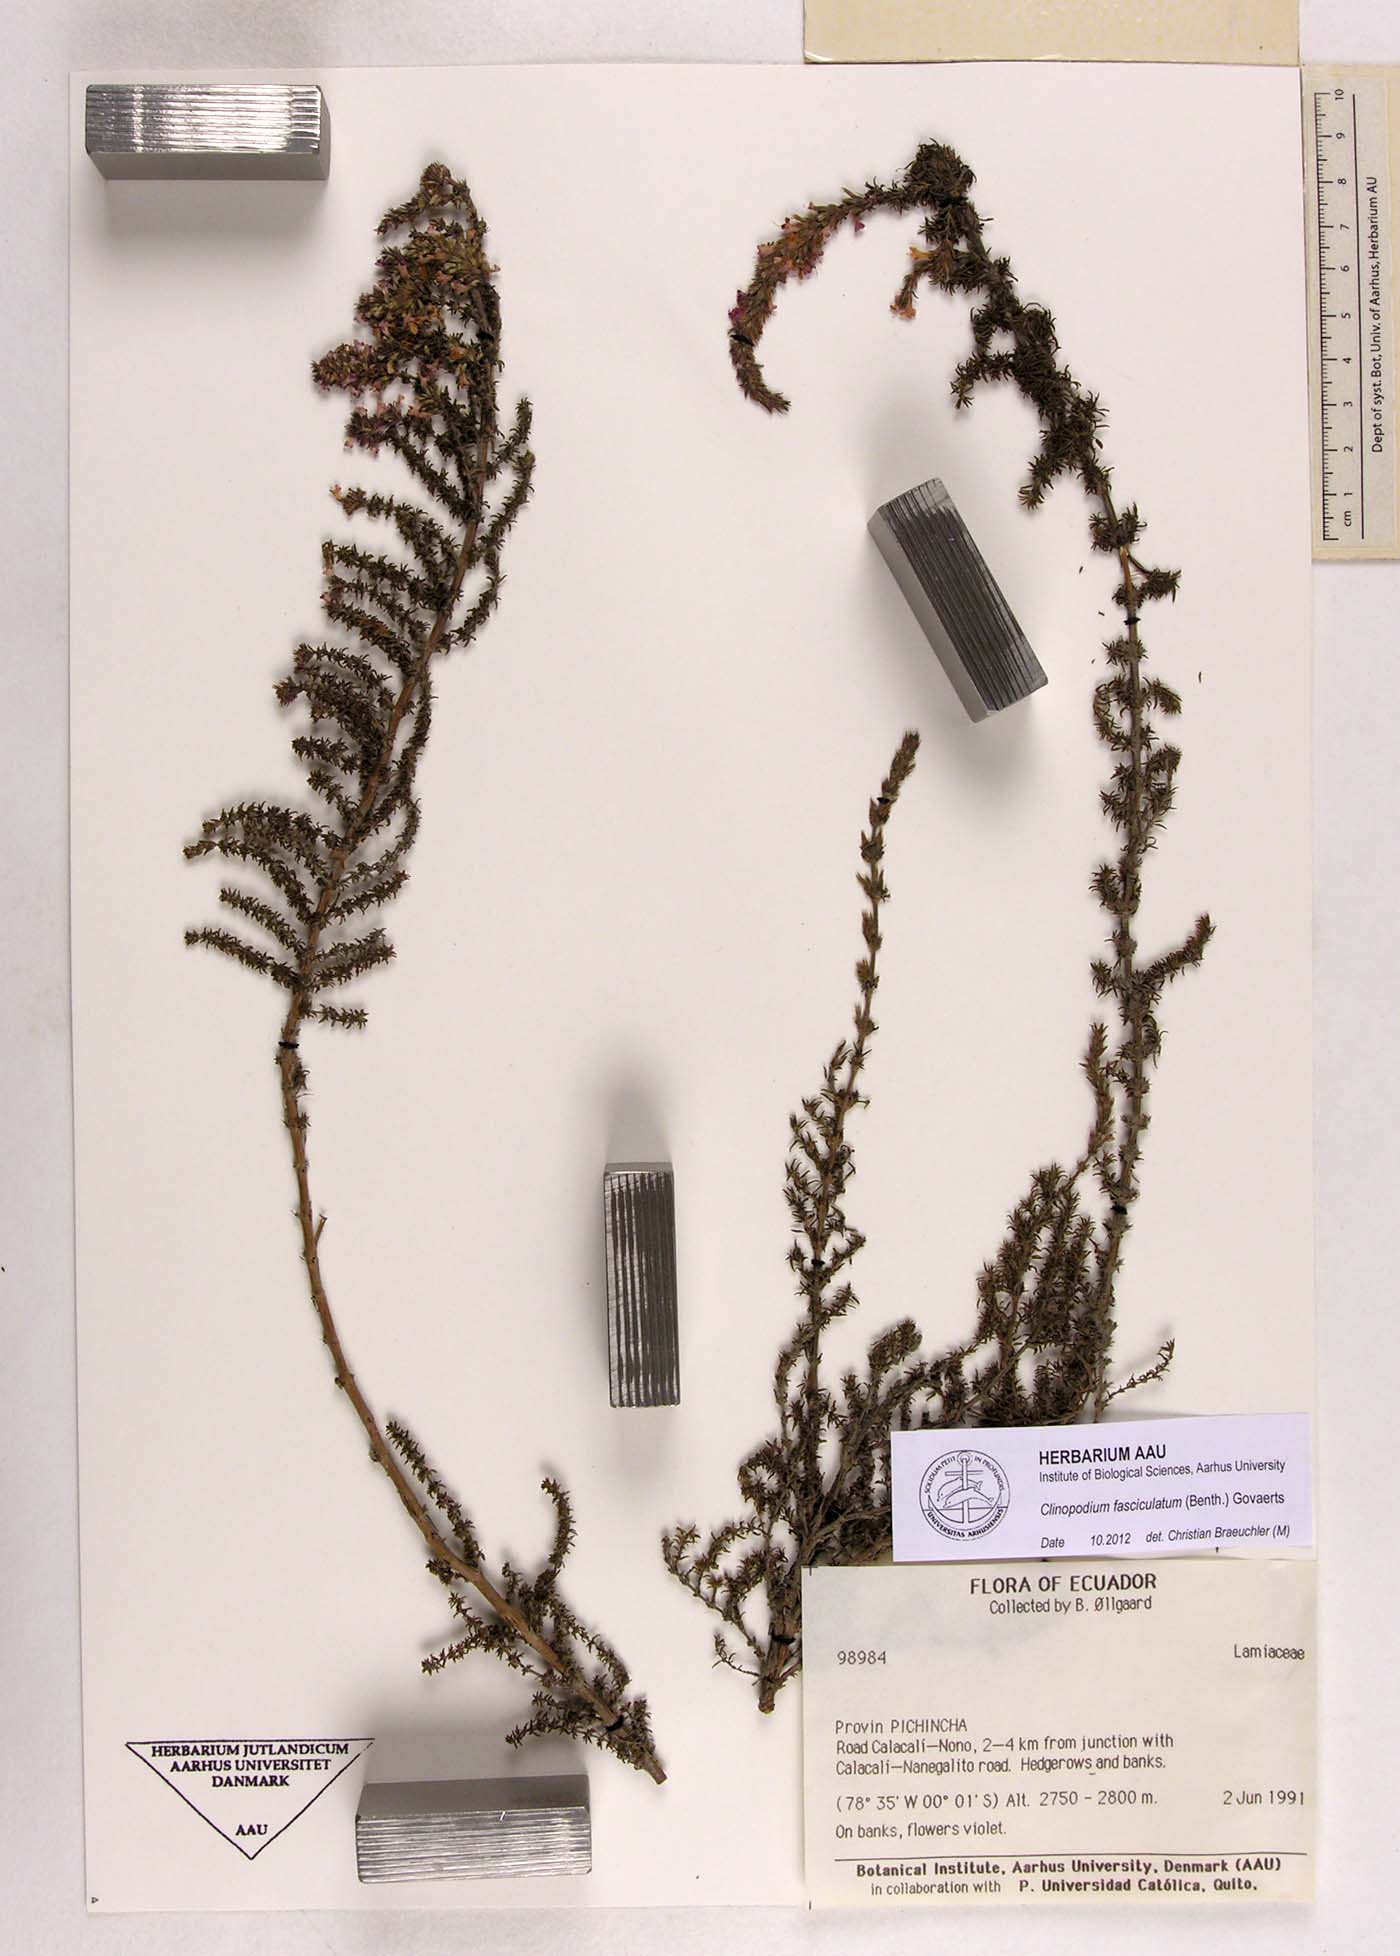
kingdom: Plantae
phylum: Tracheophyta
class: Magnoliopsida
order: Lamiales
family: Lamiaceae
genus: Clinopodium
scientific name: Clinopodium fasciculatum
